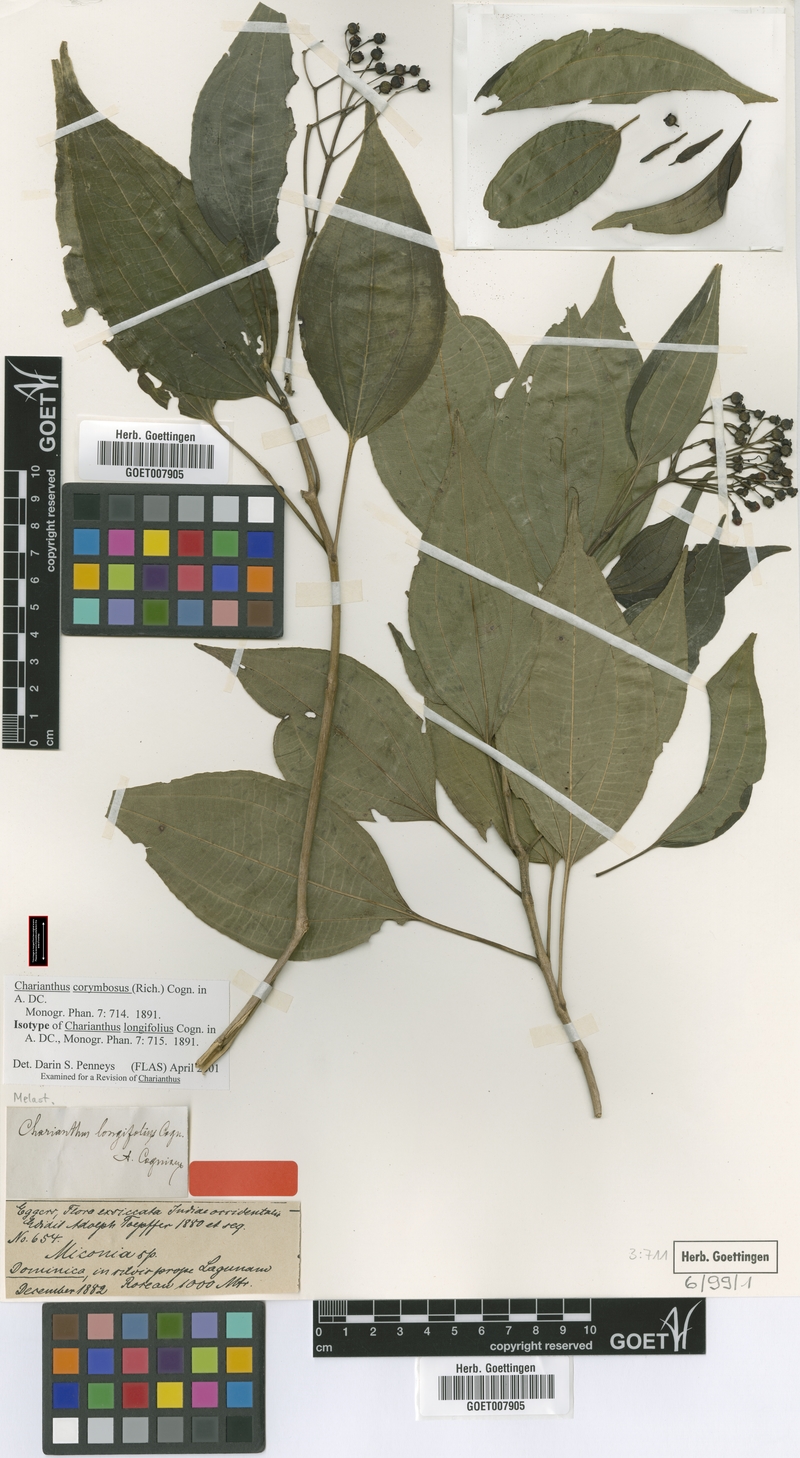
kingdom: Plantae
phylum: Tracheophyta
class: Magnoliopsida
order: Myrtales
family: Melastomataceae
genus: Miconia
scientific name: Miconia corymbosa
